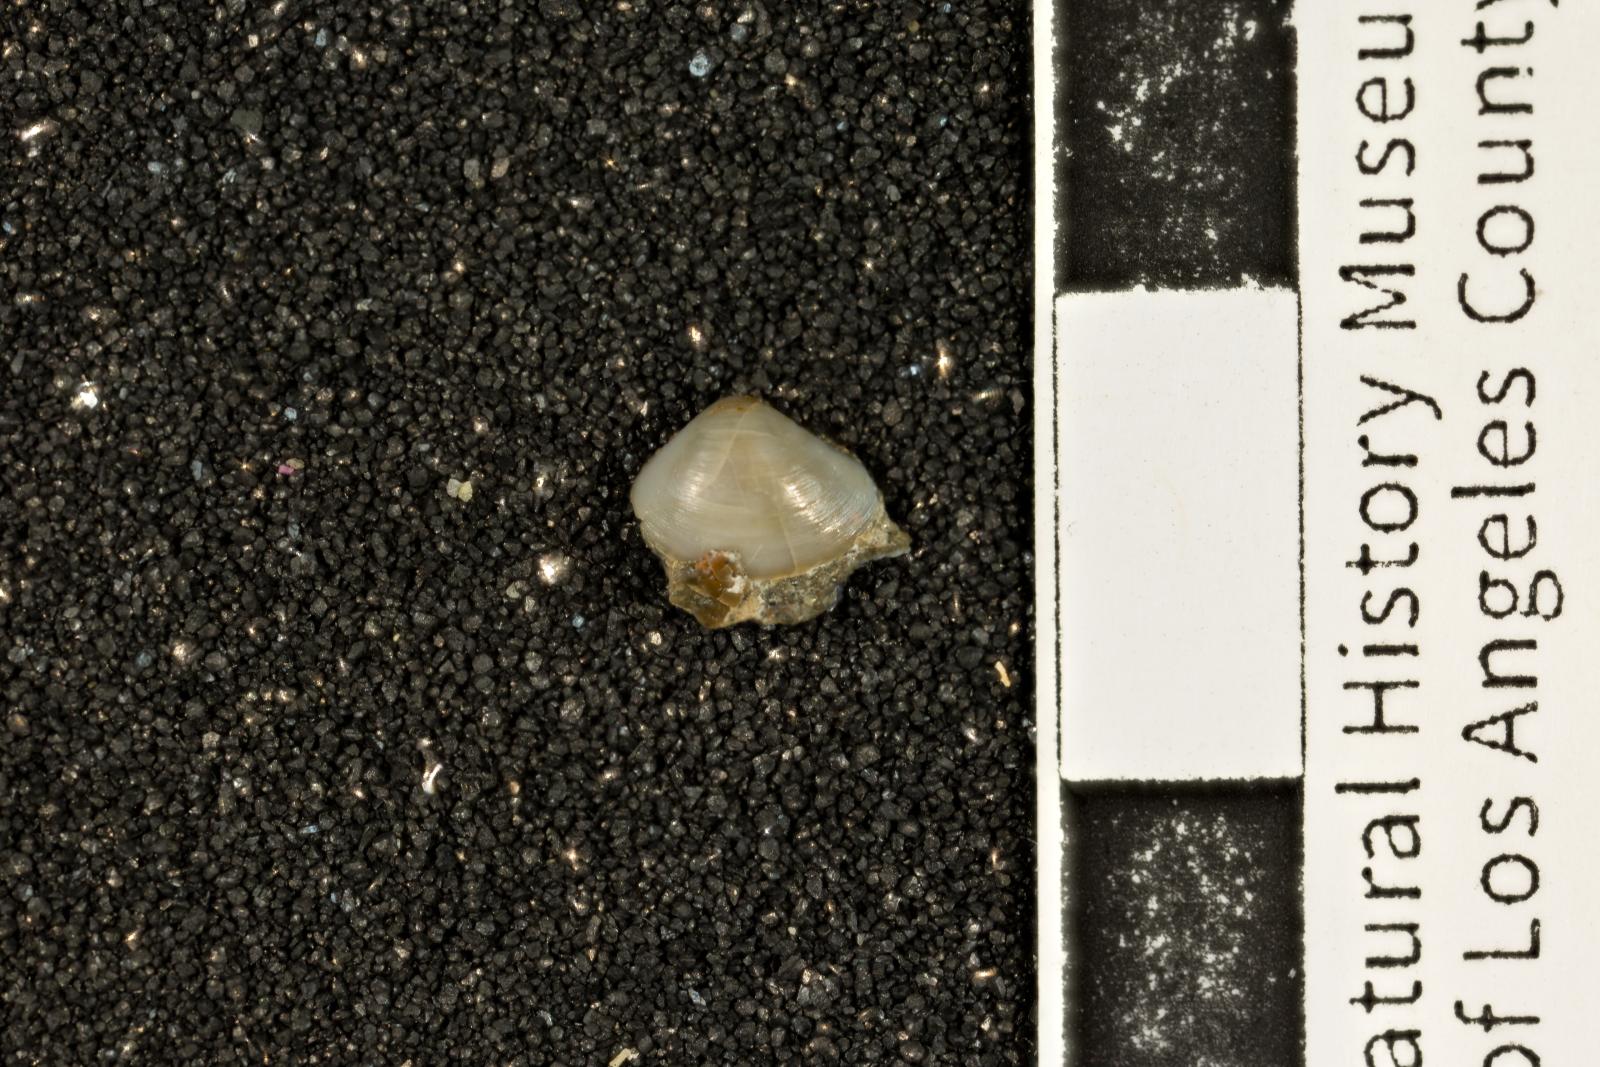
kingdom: Animalia
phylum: Mollusca
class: Bivalvia
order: Myida
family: Corbulidae
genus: Excorbula
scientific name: Excorbula shastana
